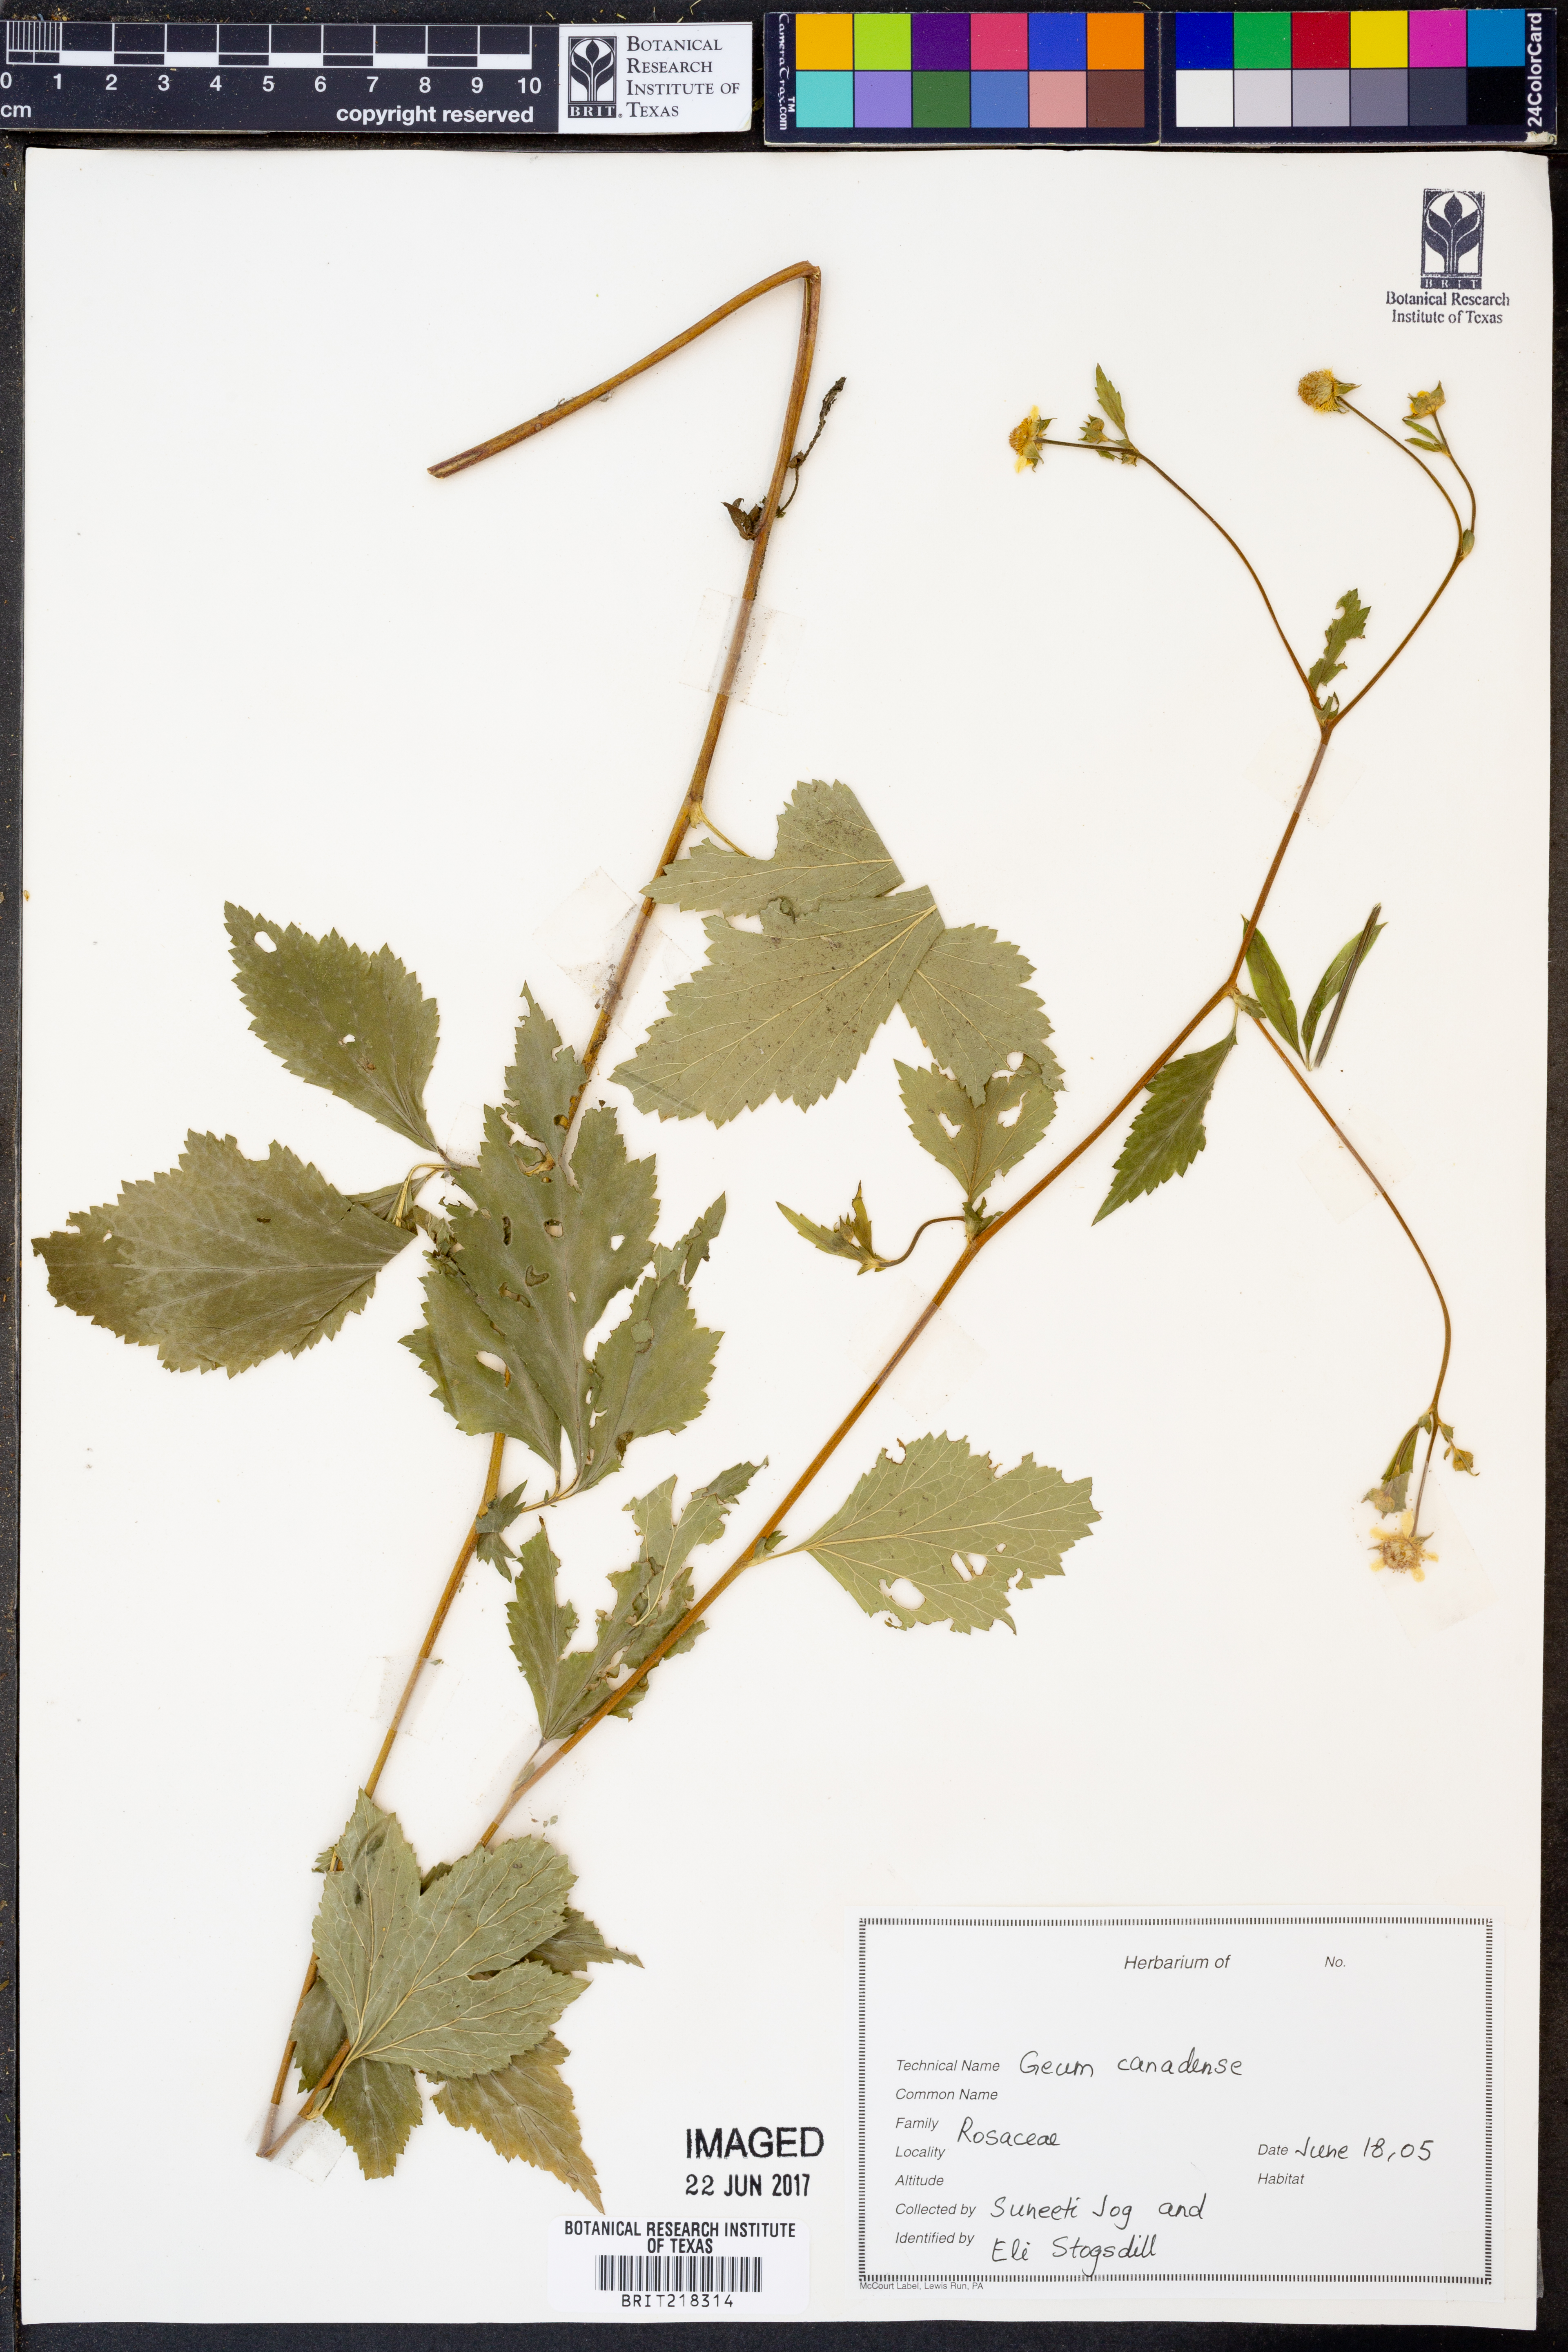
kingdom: Plantae
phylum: Tracheophyta
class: Magnoliopsida
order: Rosales
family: Rosaceae
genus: Geum
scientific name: Geum canadense
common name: White avens
